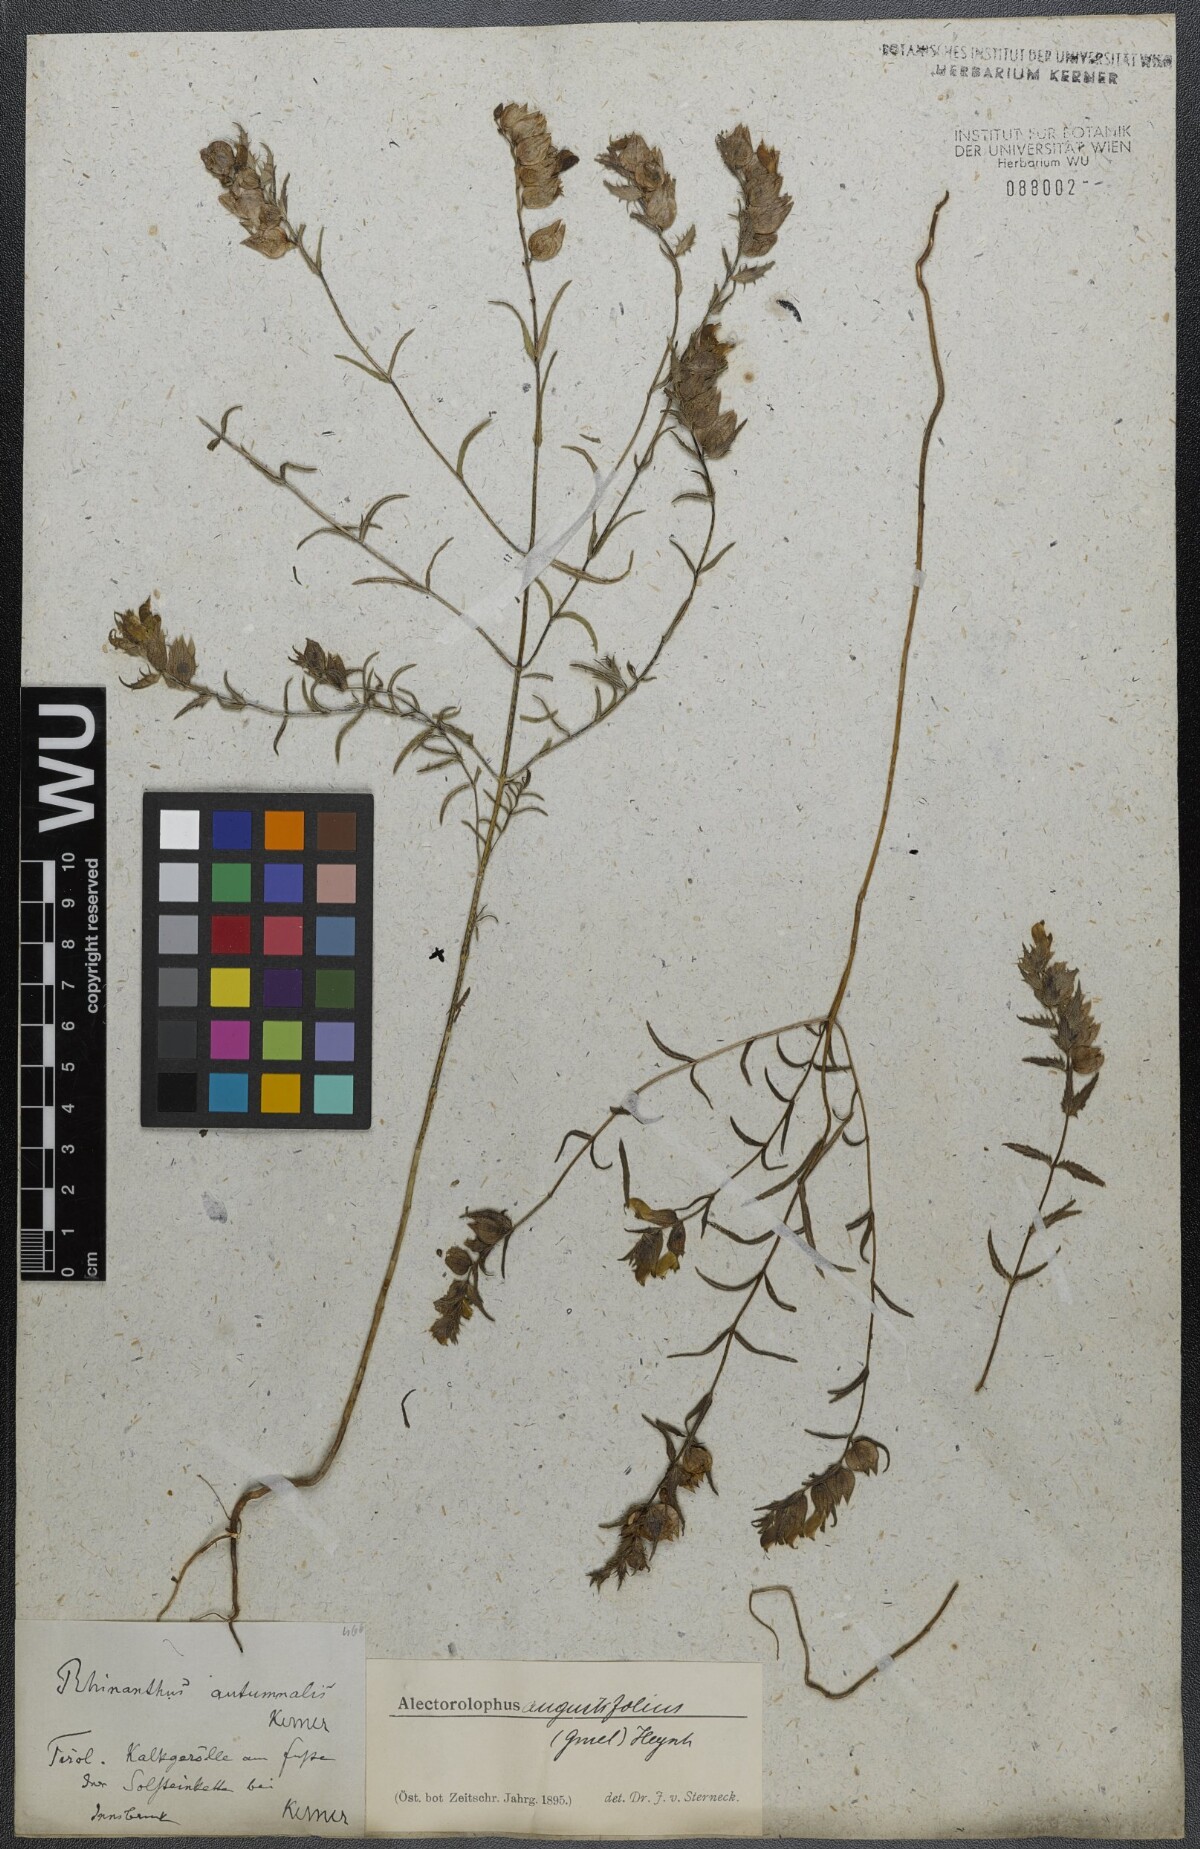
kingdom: Plantae
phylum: Tracheophyta
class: Magnoliopsida
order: Lamiales
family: Orobanchaceae
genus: Rhinanthus
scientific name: Rhinanthus
